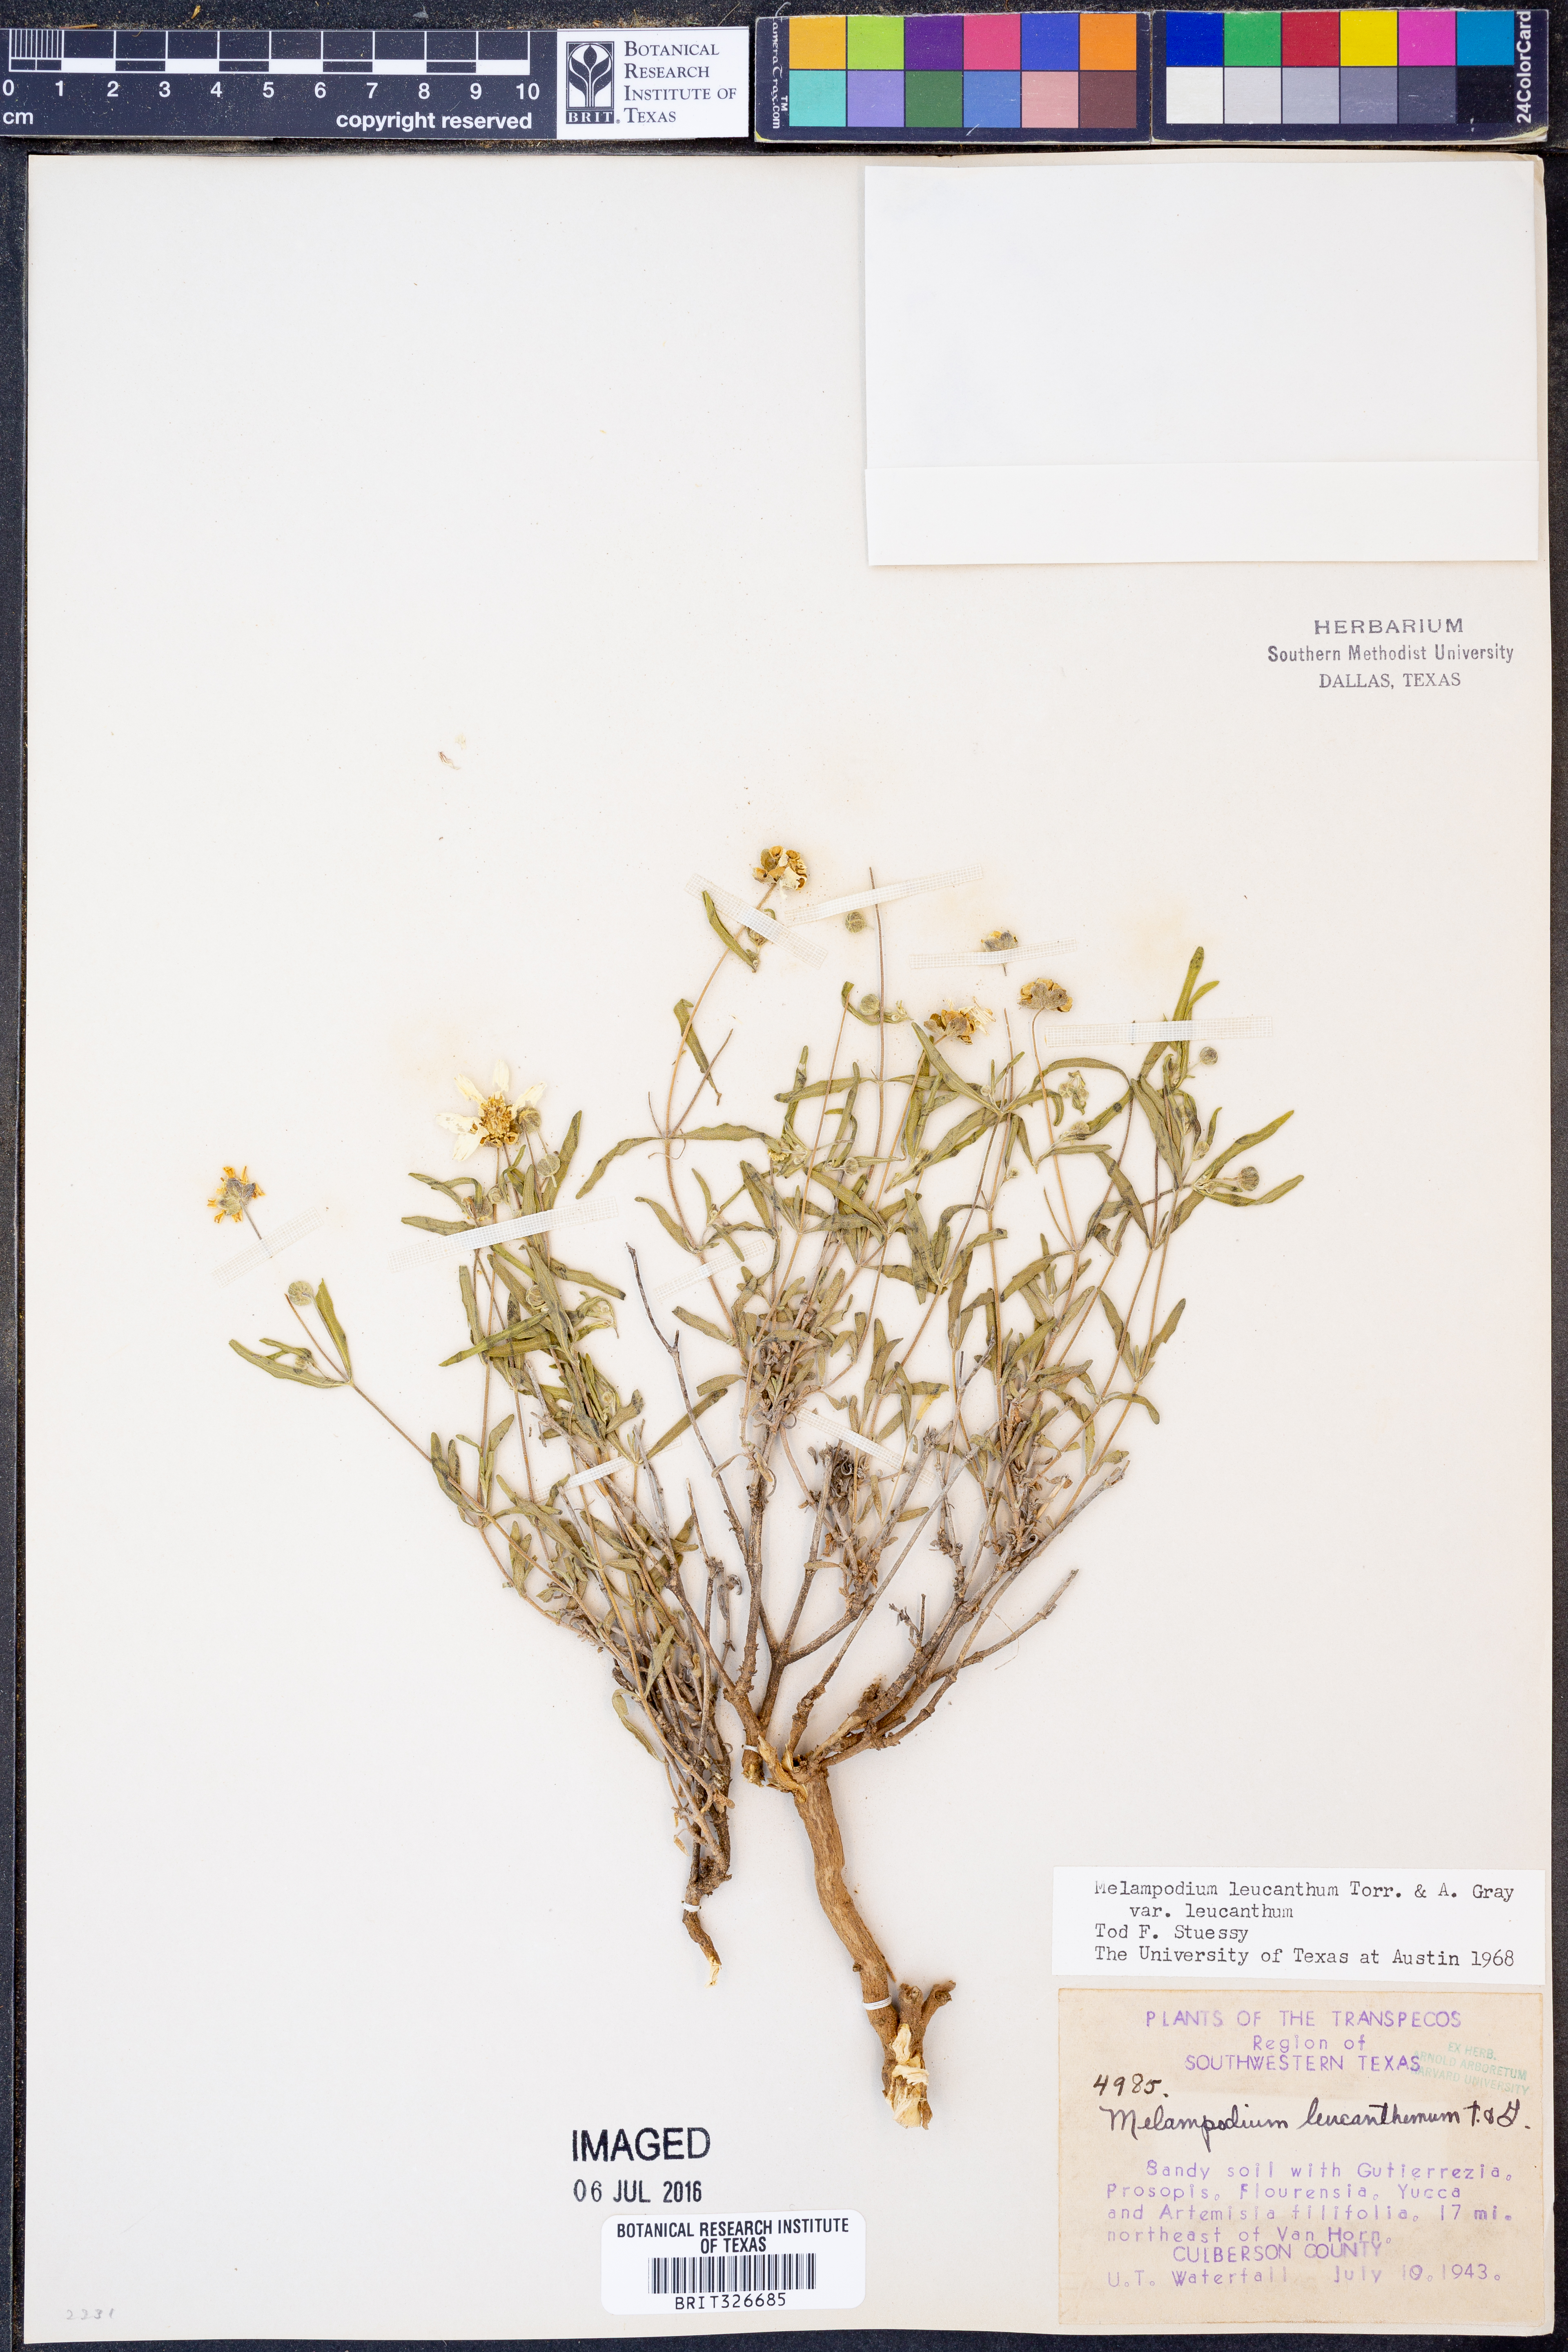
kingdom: Plantae
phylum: Tracheophyta
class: Magnoliopsida
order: Asterales
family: Asteraceae
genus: Melampodium
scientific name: Melampodium leucanthum
